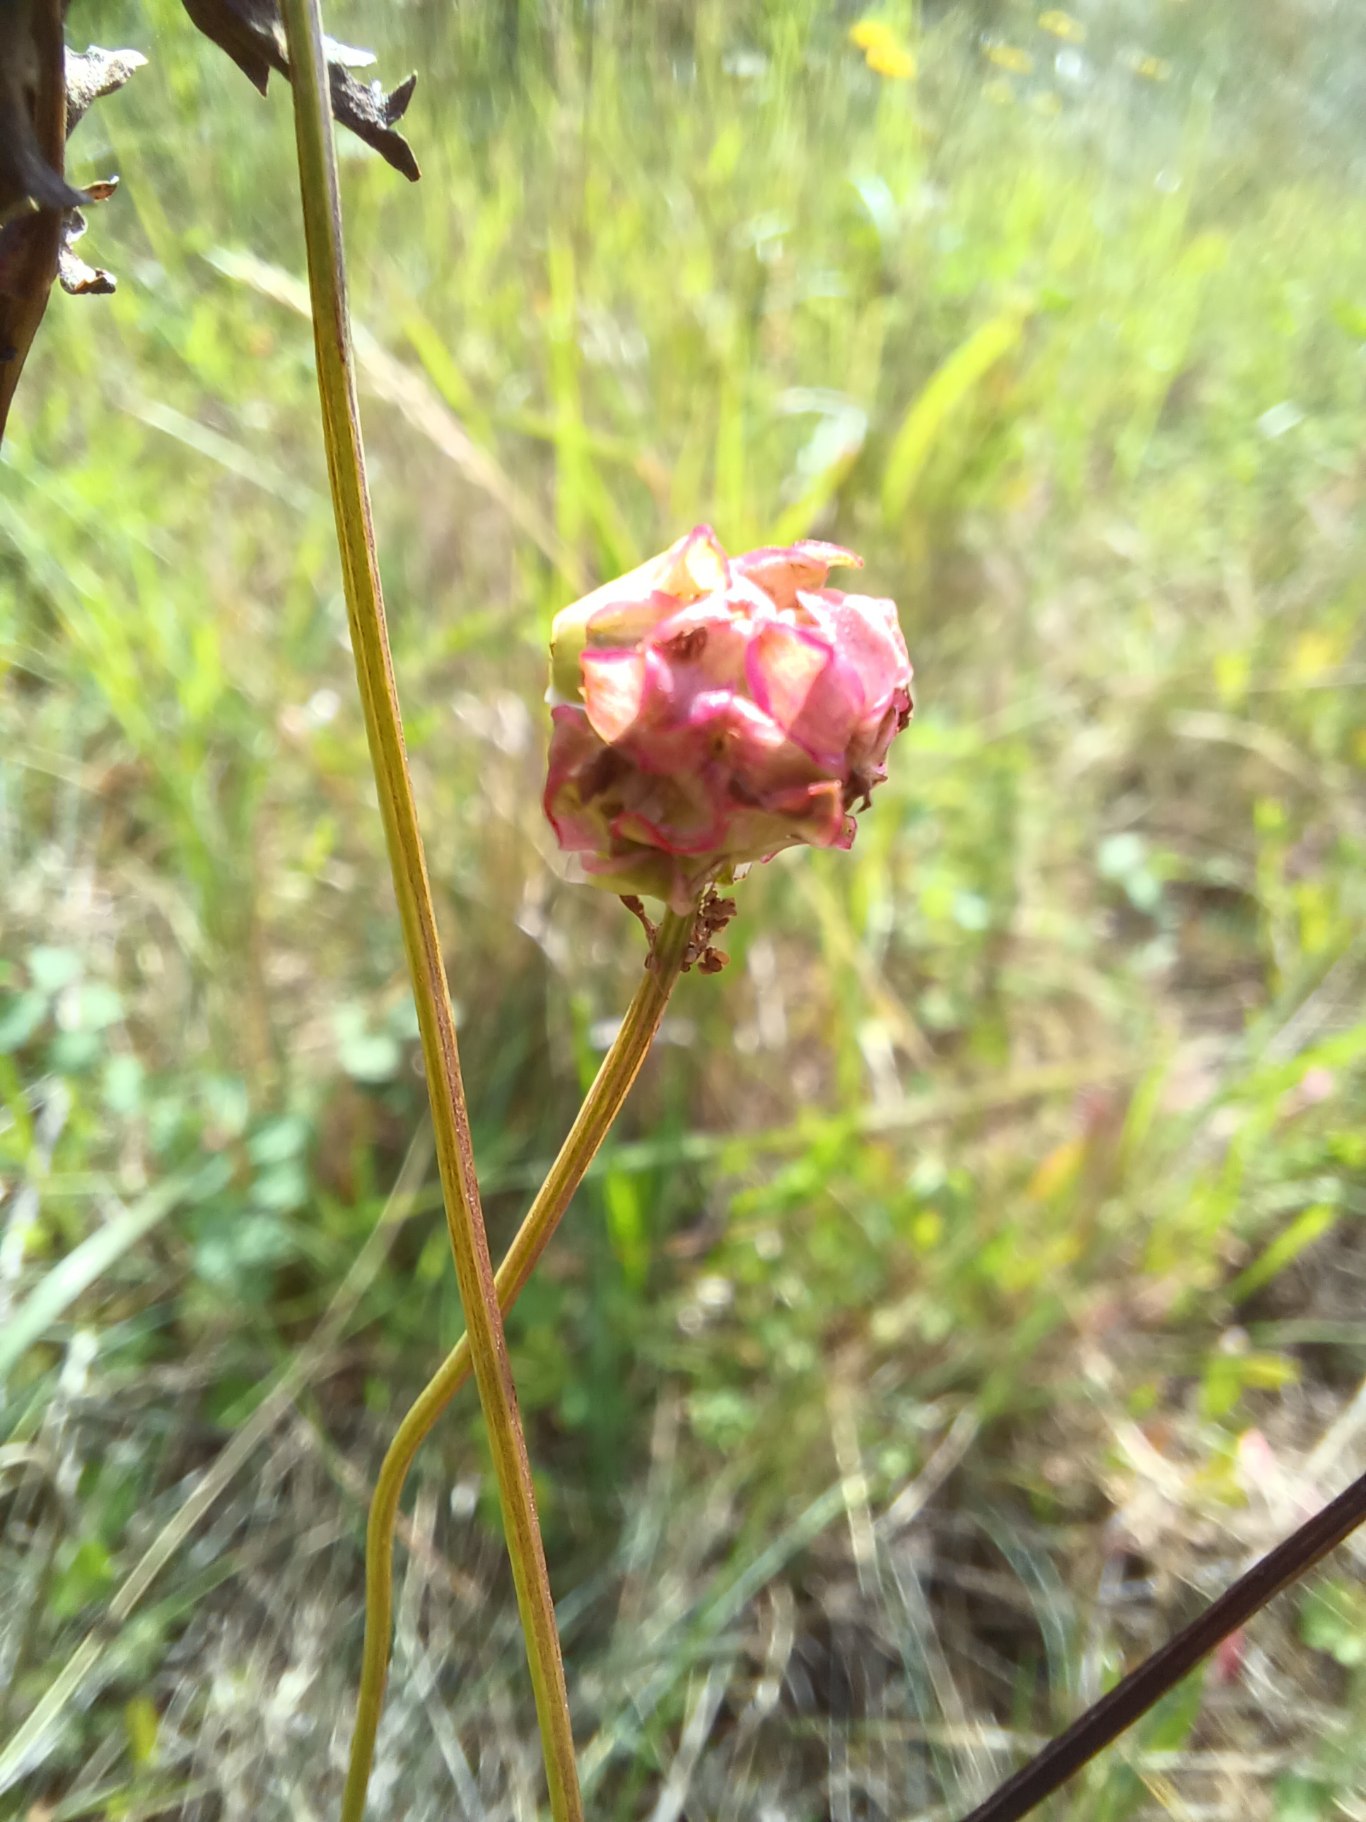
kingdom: Plantae
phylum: Tracheophyta
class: Magnoliopsida
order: Rosales
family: Rosaceae
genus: Poterium
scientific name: Poterium sanguisorba
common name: Bibernelle
